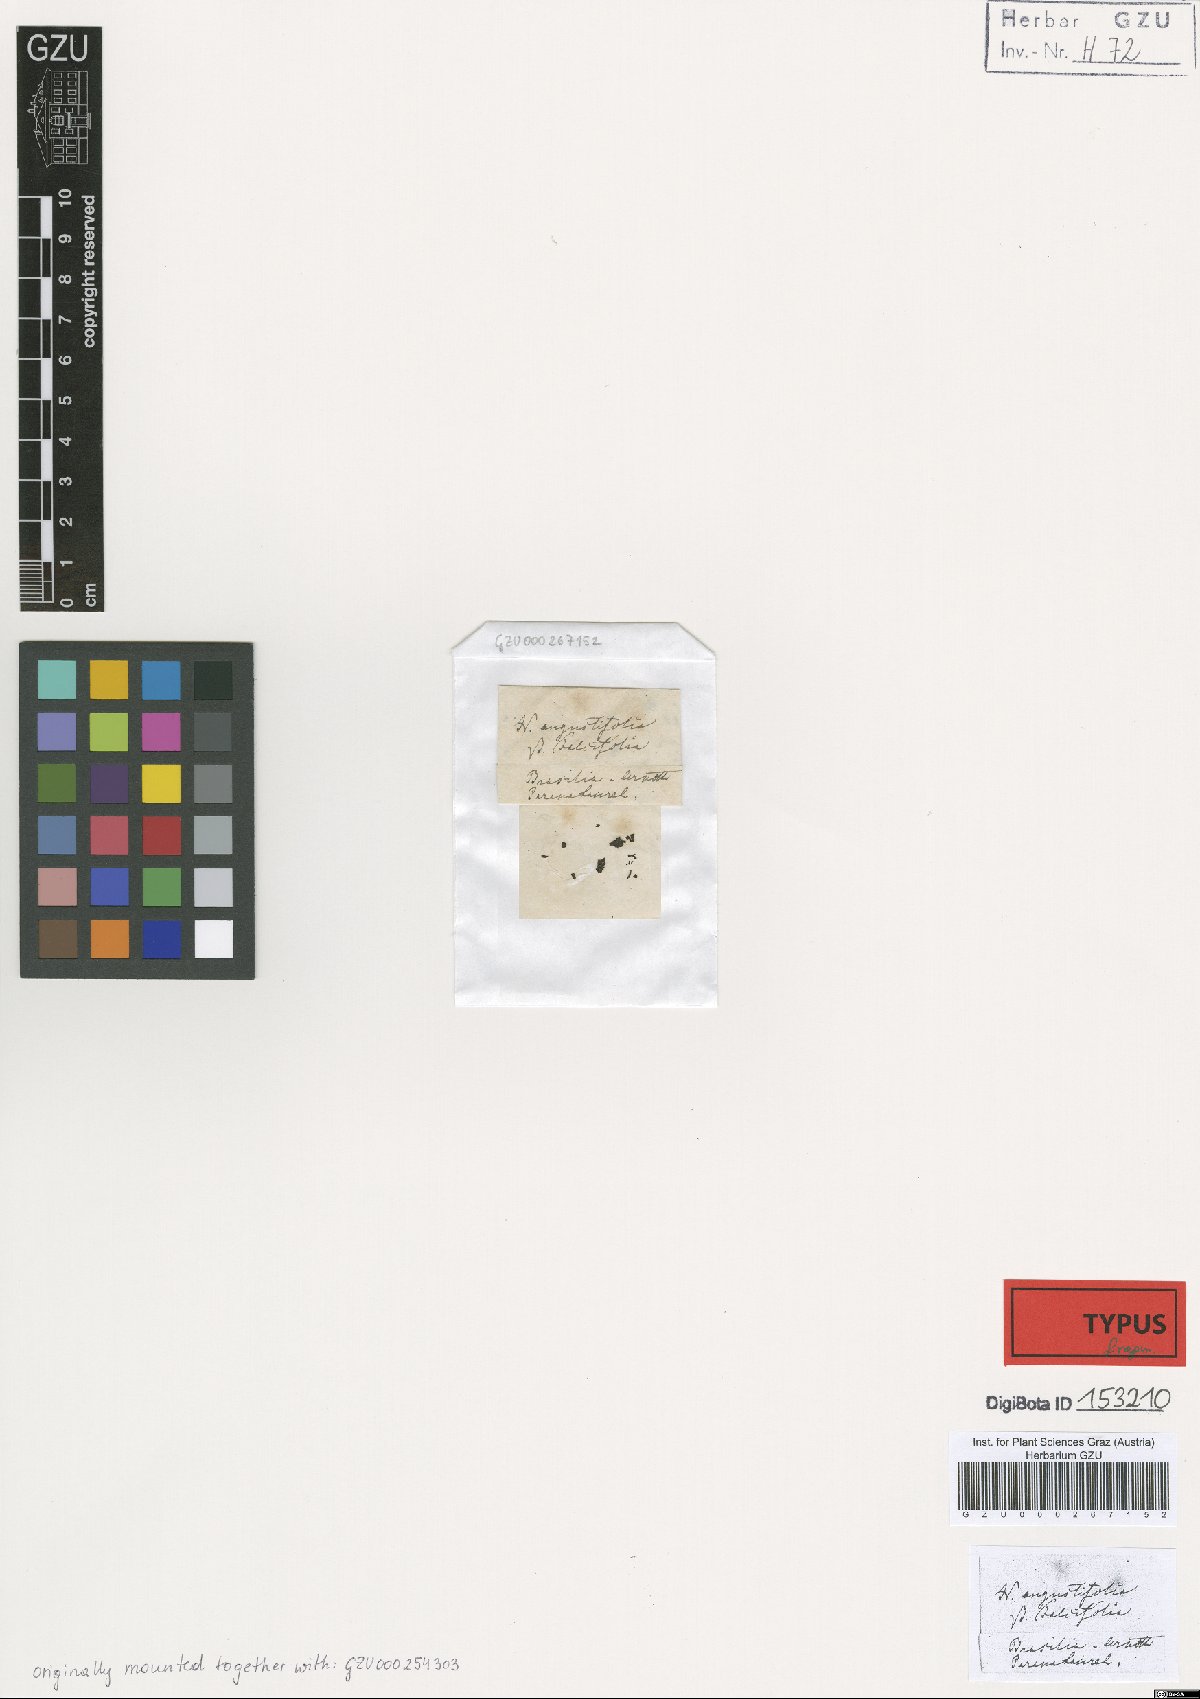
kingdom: Plantae
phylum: Tracheophyta
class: Magnoliopsida
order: Laurales
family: Lauraceae
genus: Nectandra
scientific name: Nectandra angustifolia
